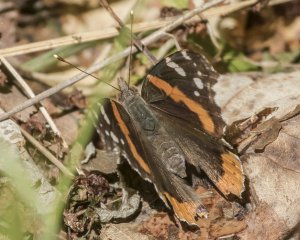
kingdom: Animalia
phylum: Arthropoda
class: Insecta
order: Lepidoptera
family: Nymphalidae
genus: Vanessa
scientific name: Vanessa atalanta
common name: Red Admiral
